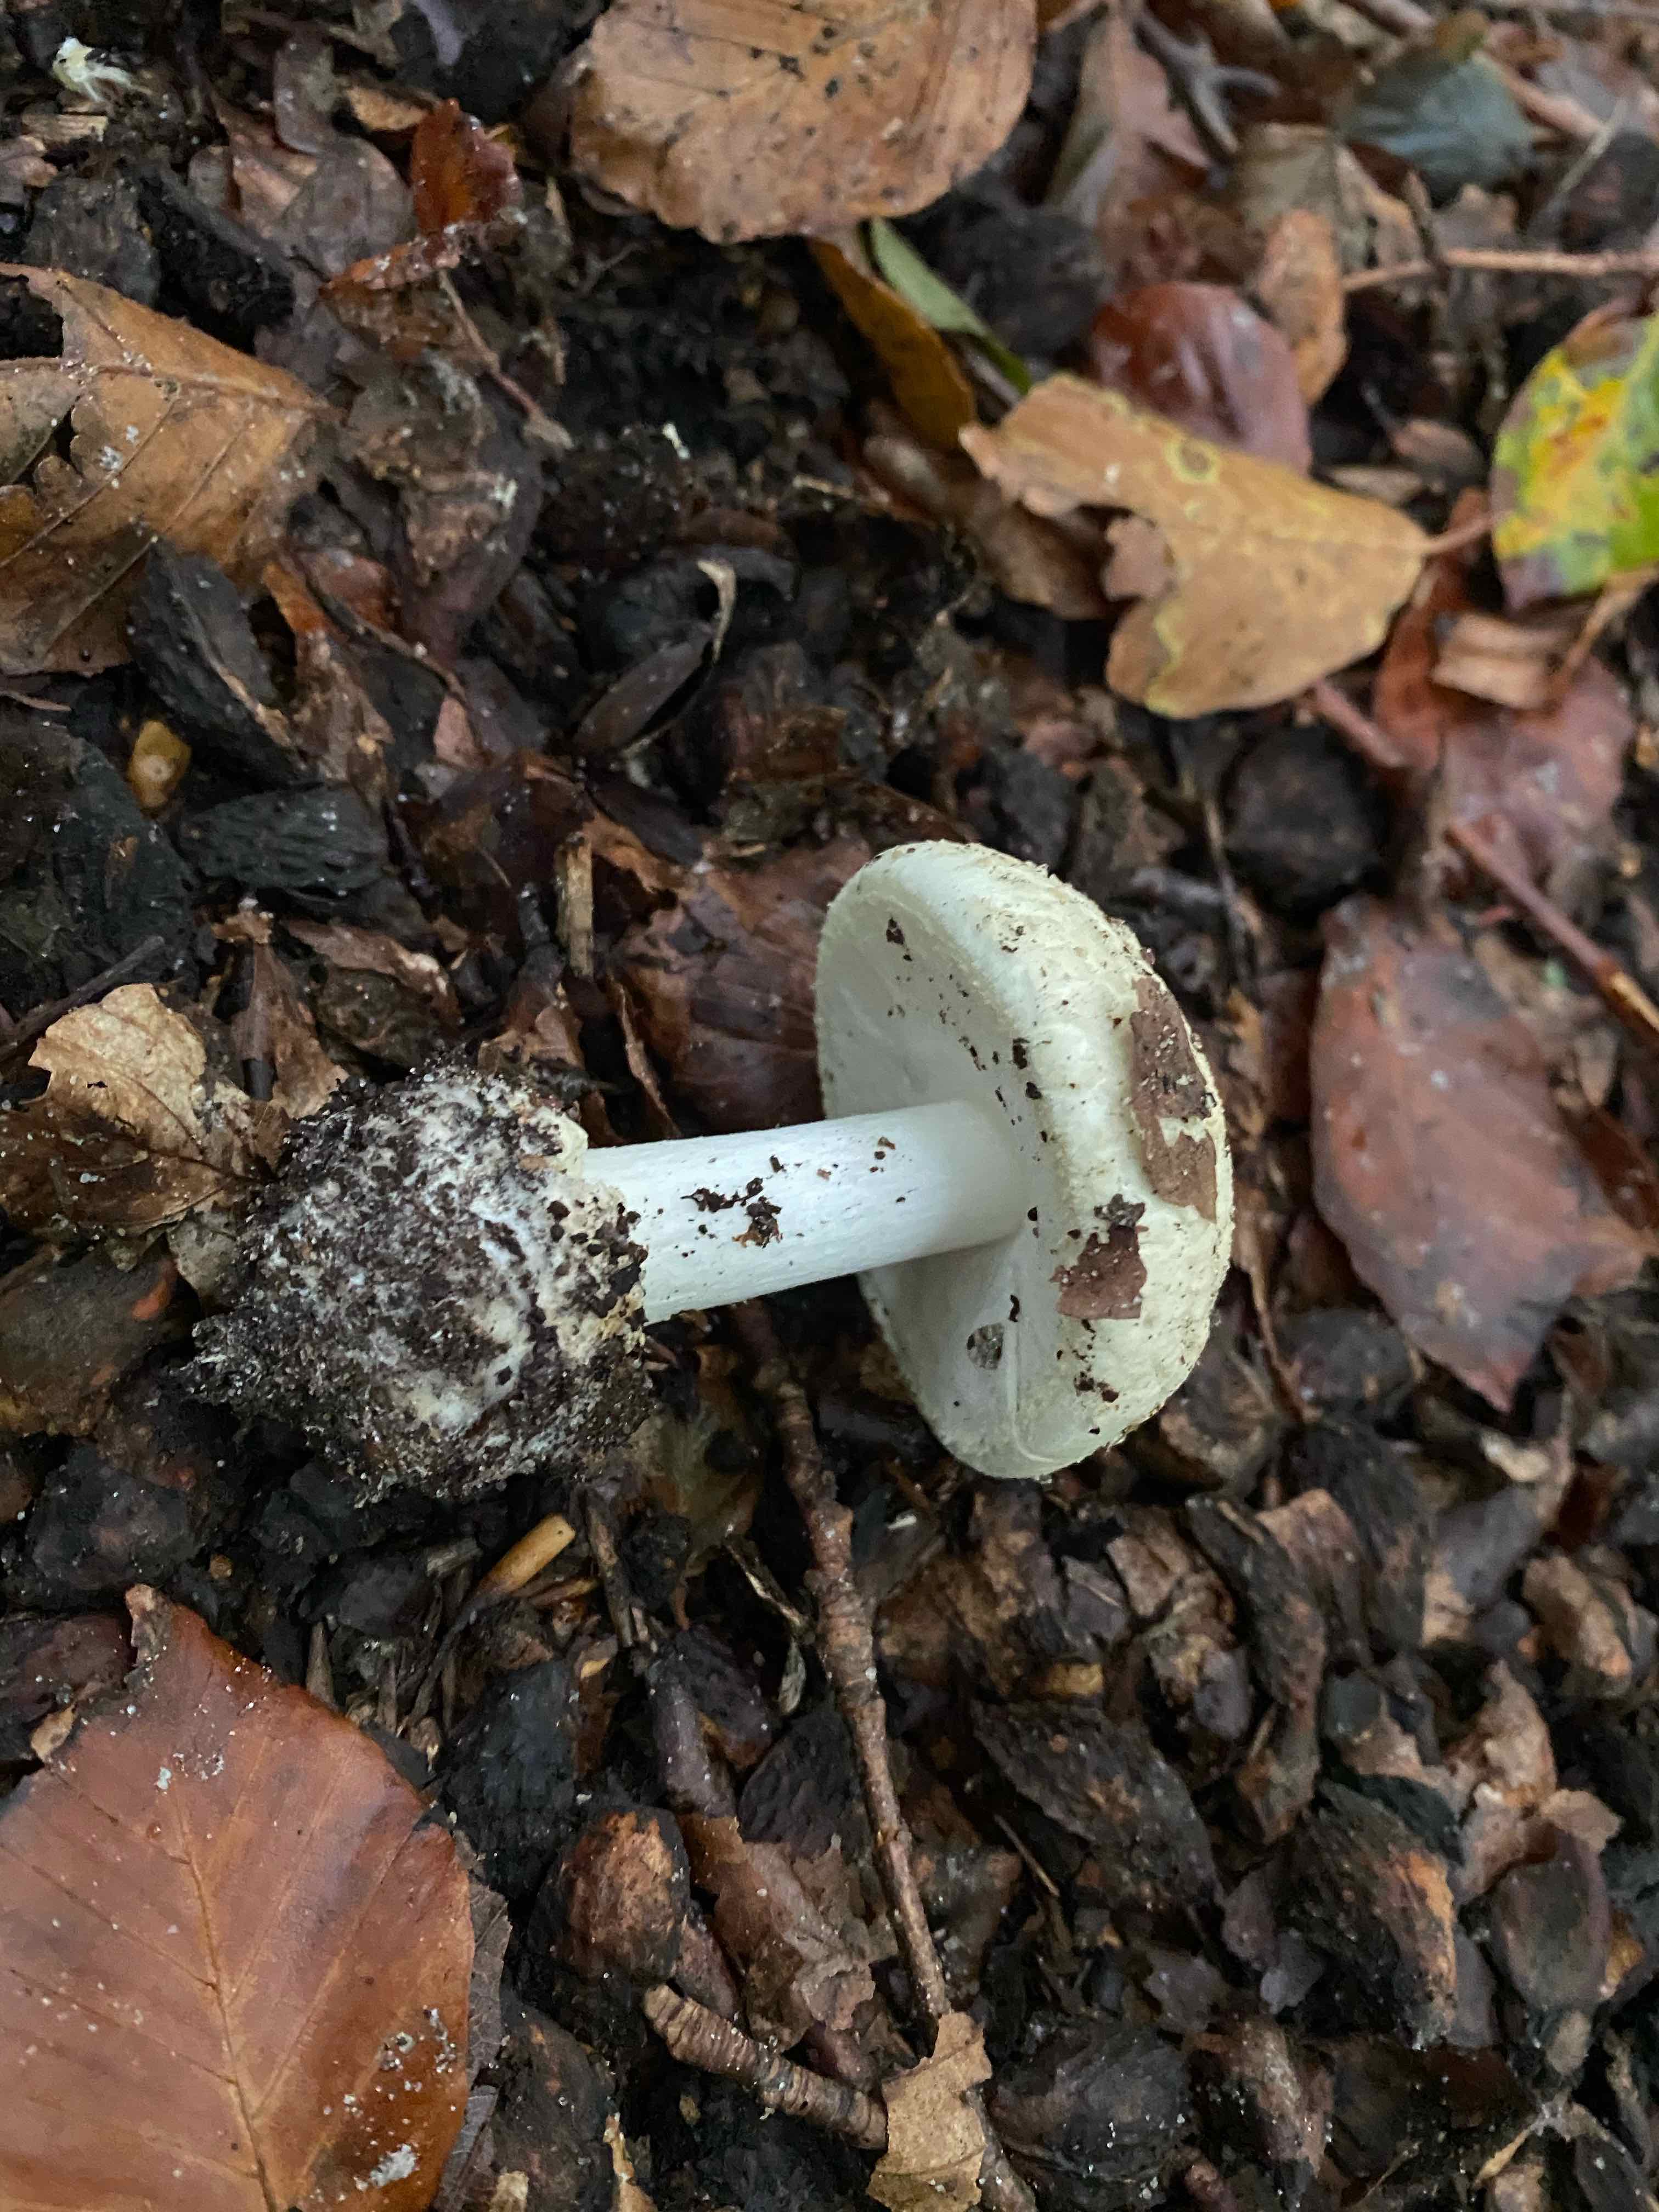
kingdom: Fungi
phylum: Basidiomycota
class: Agaricomycetes
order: Agaricales
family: Amanitaceae
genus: Amanita
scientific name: Amanita citrina
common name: kugleknoldet fluesvamp
